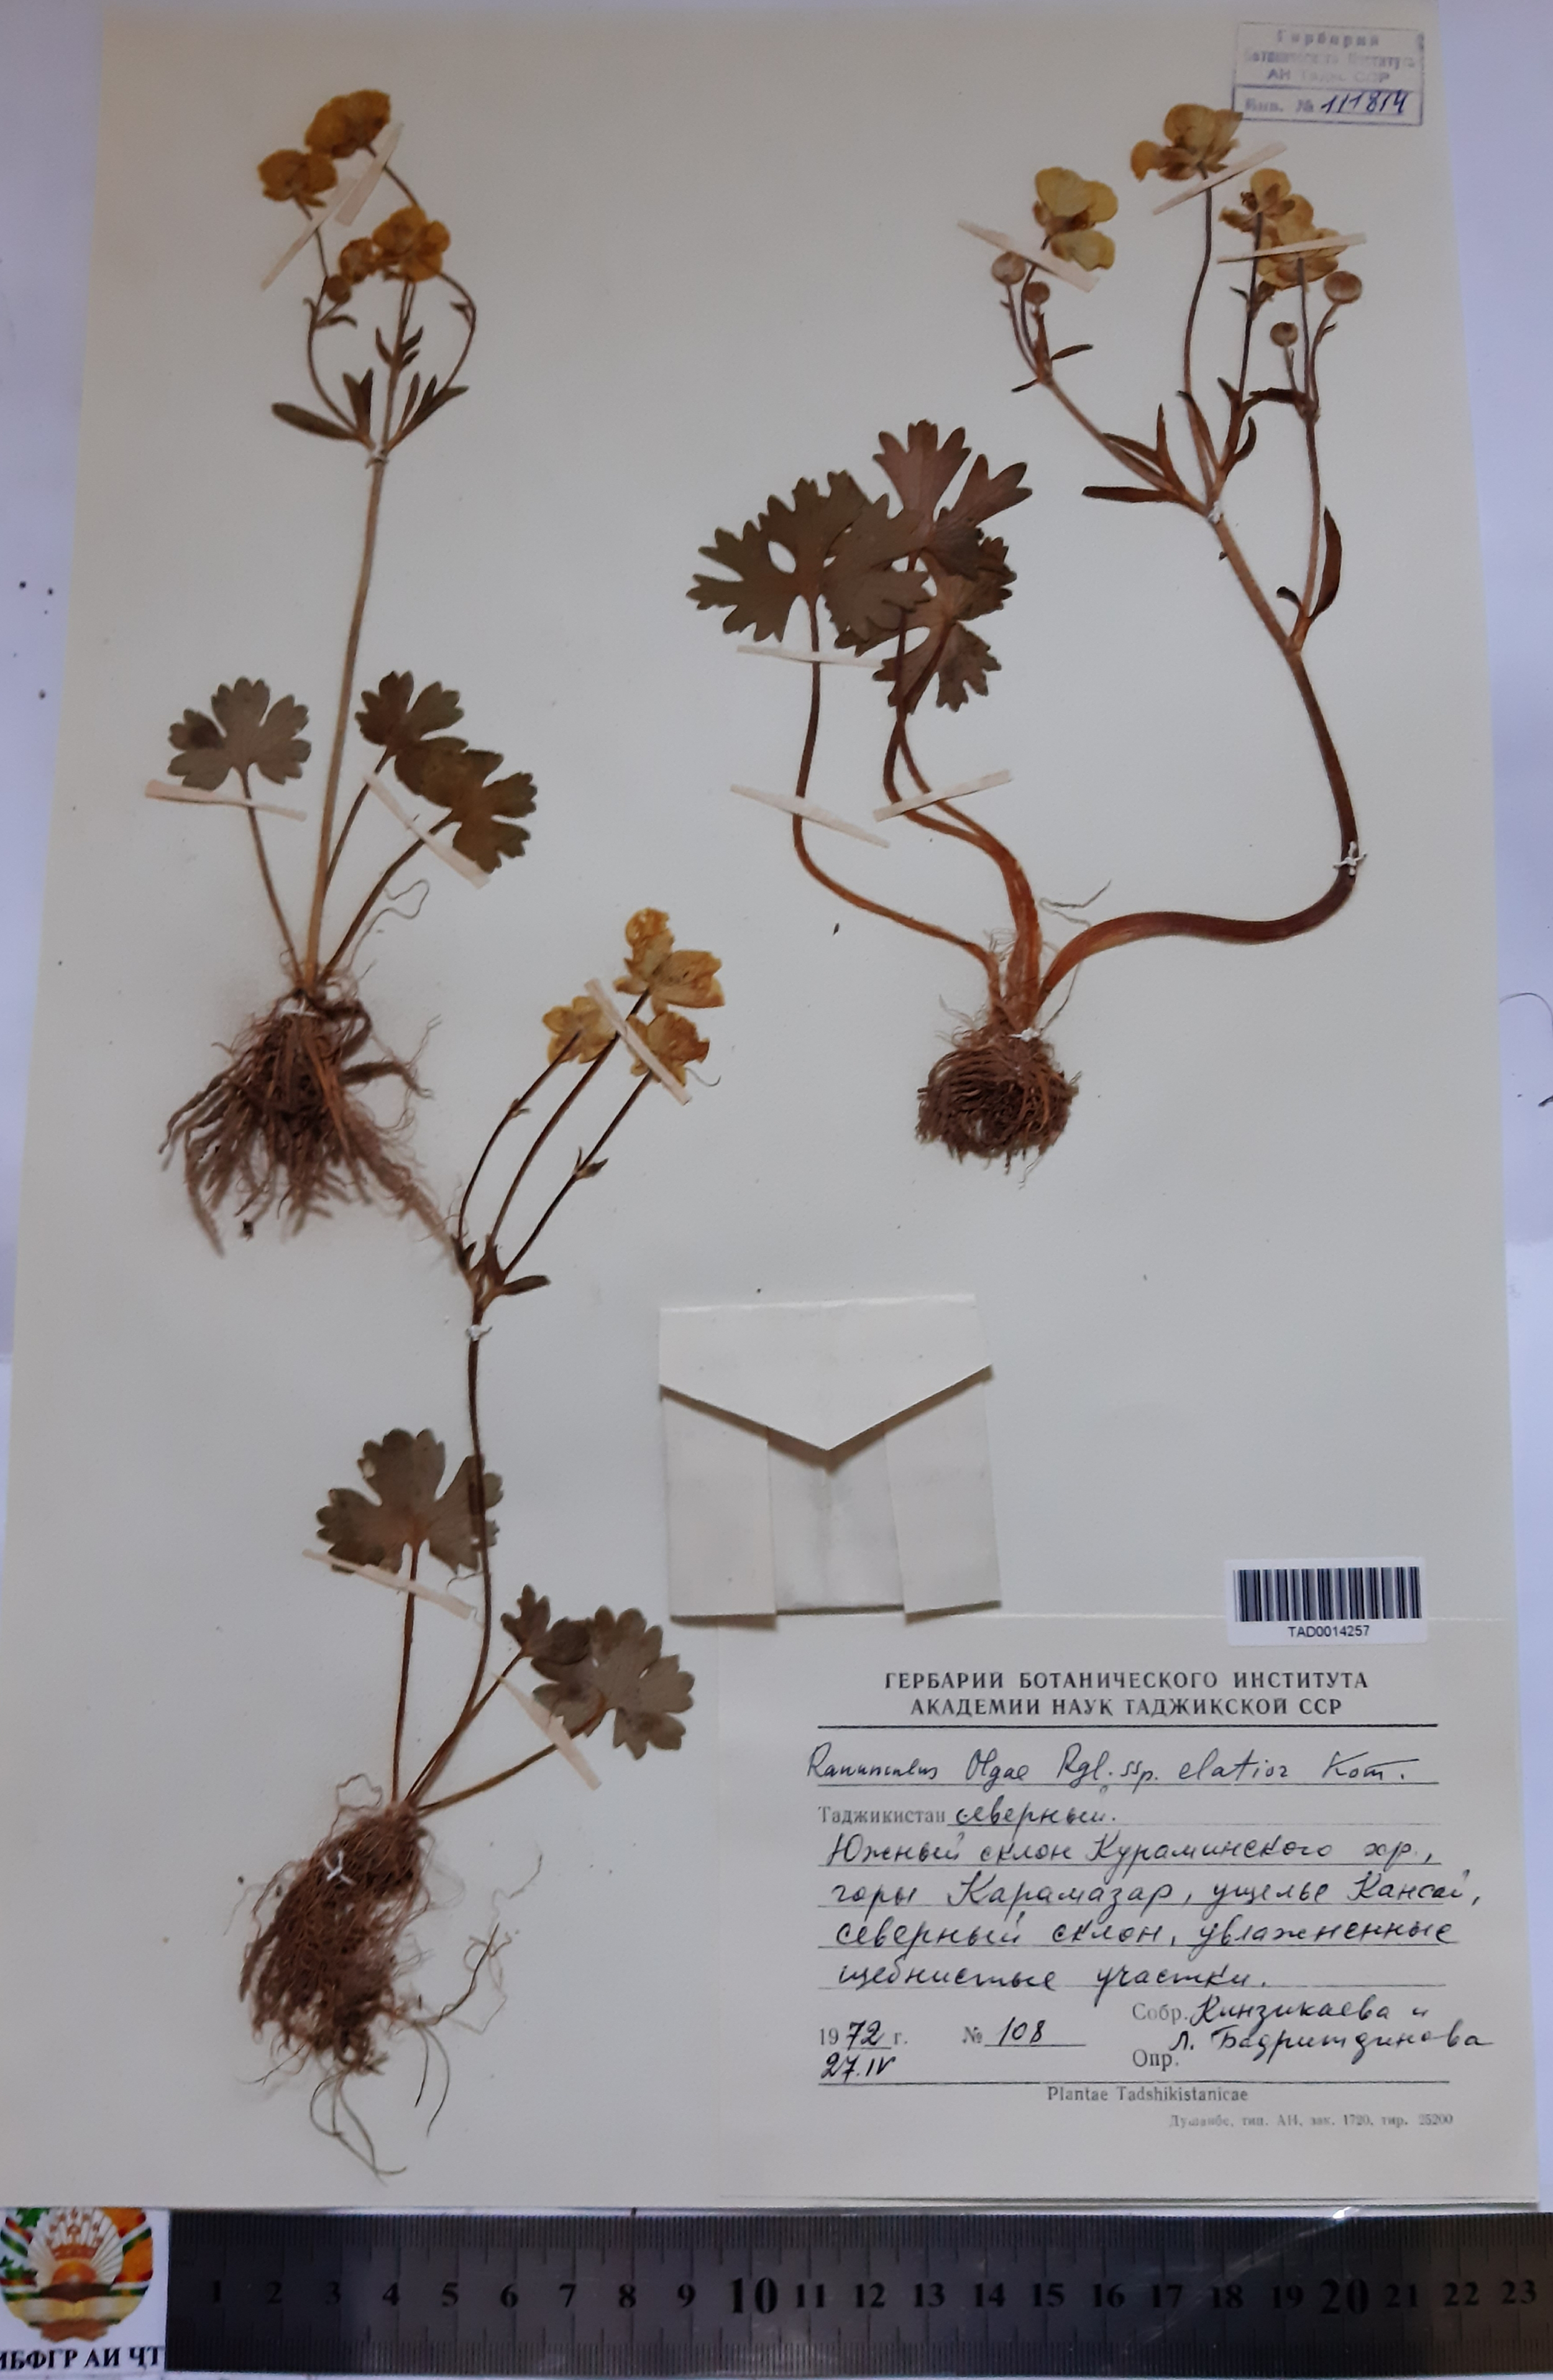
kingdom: Plantae
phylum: Tracheophyta
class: Magnoliopsida
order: Ranunculales
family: Ranunculaceae
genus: Ranunculus
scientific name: Ranunculus afghanicus
